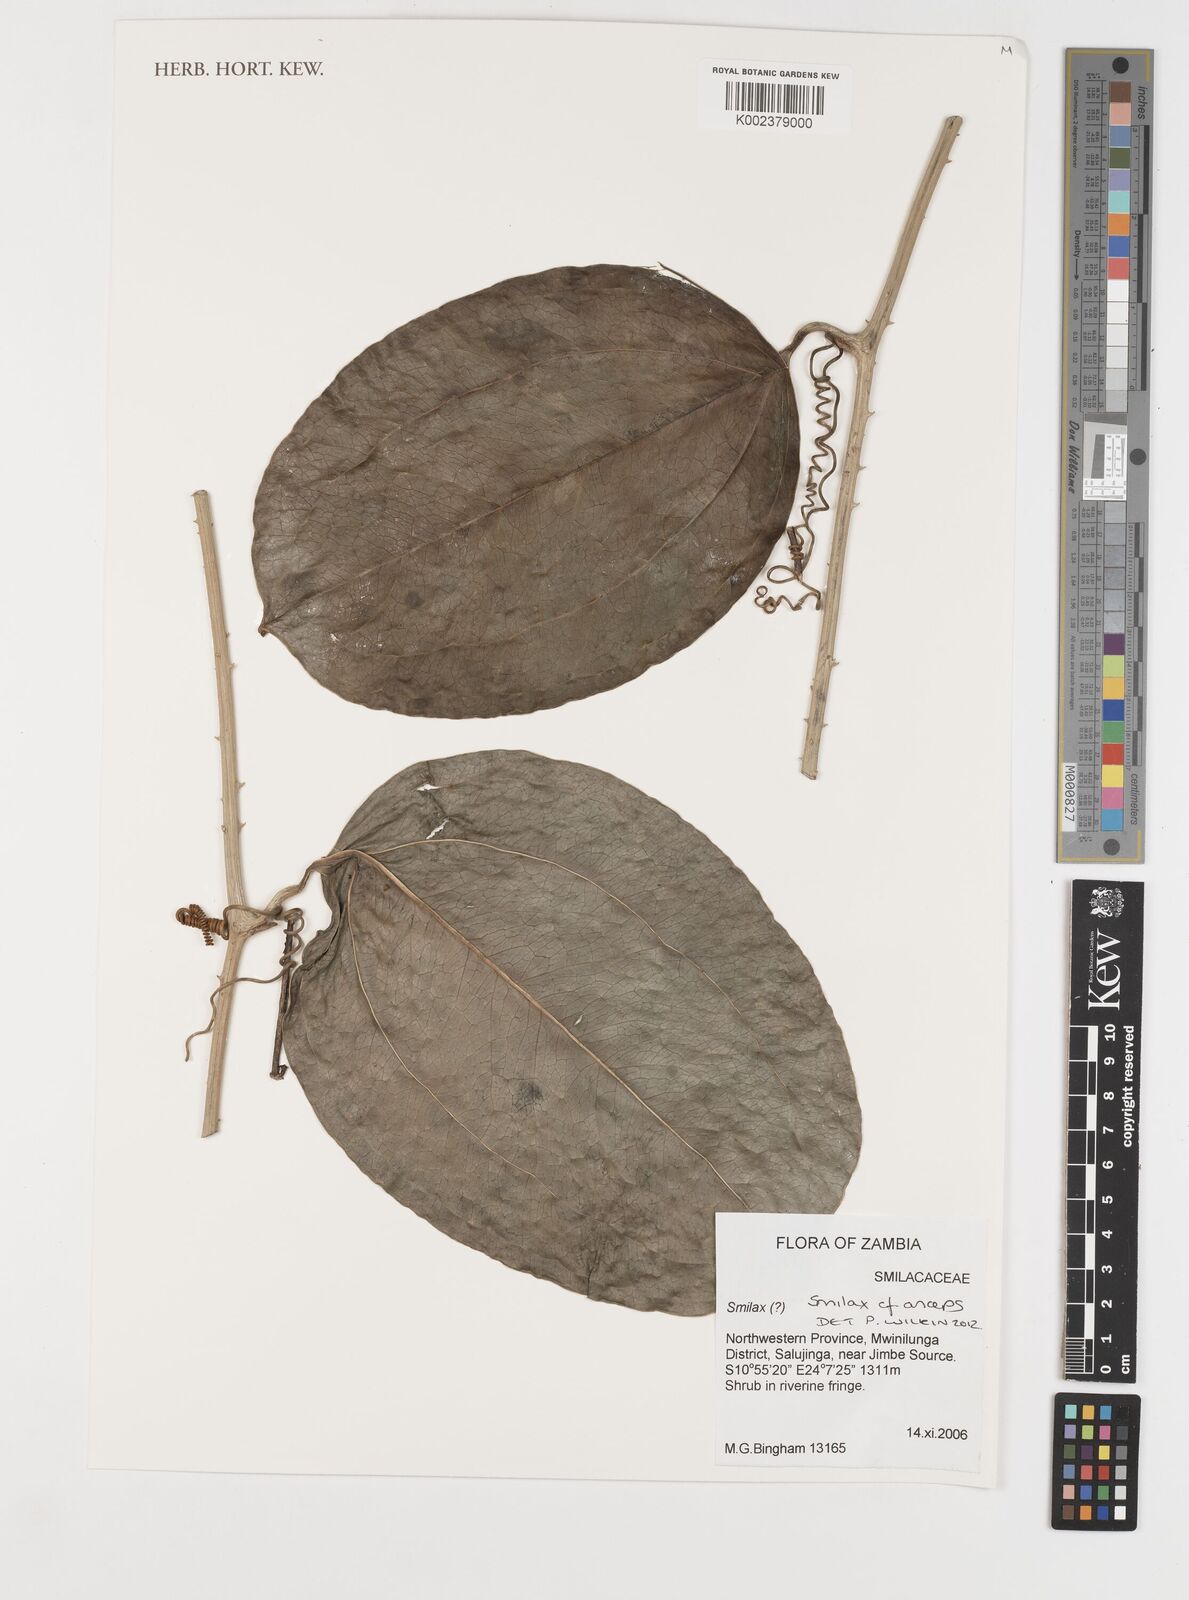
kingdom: Plantae
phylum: Tracheophyta
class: Liliopsida
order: Liliales
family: Smilacaceae
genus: Smilax
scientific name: Smilax anceps
